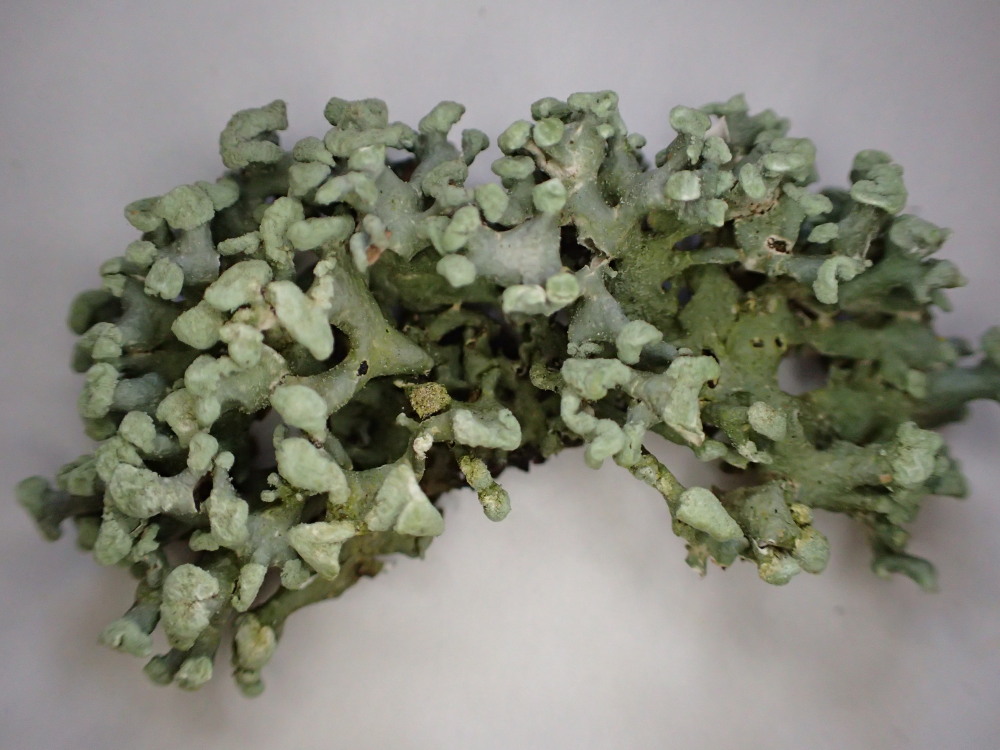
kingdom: Fungi
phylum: Ascomycota
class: Lecanoromycetes
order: Lecanorales
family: Parmeliaceae
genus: Hypogymnia
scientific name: Hypogymnia tubulosa
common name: finger-kvistlav
